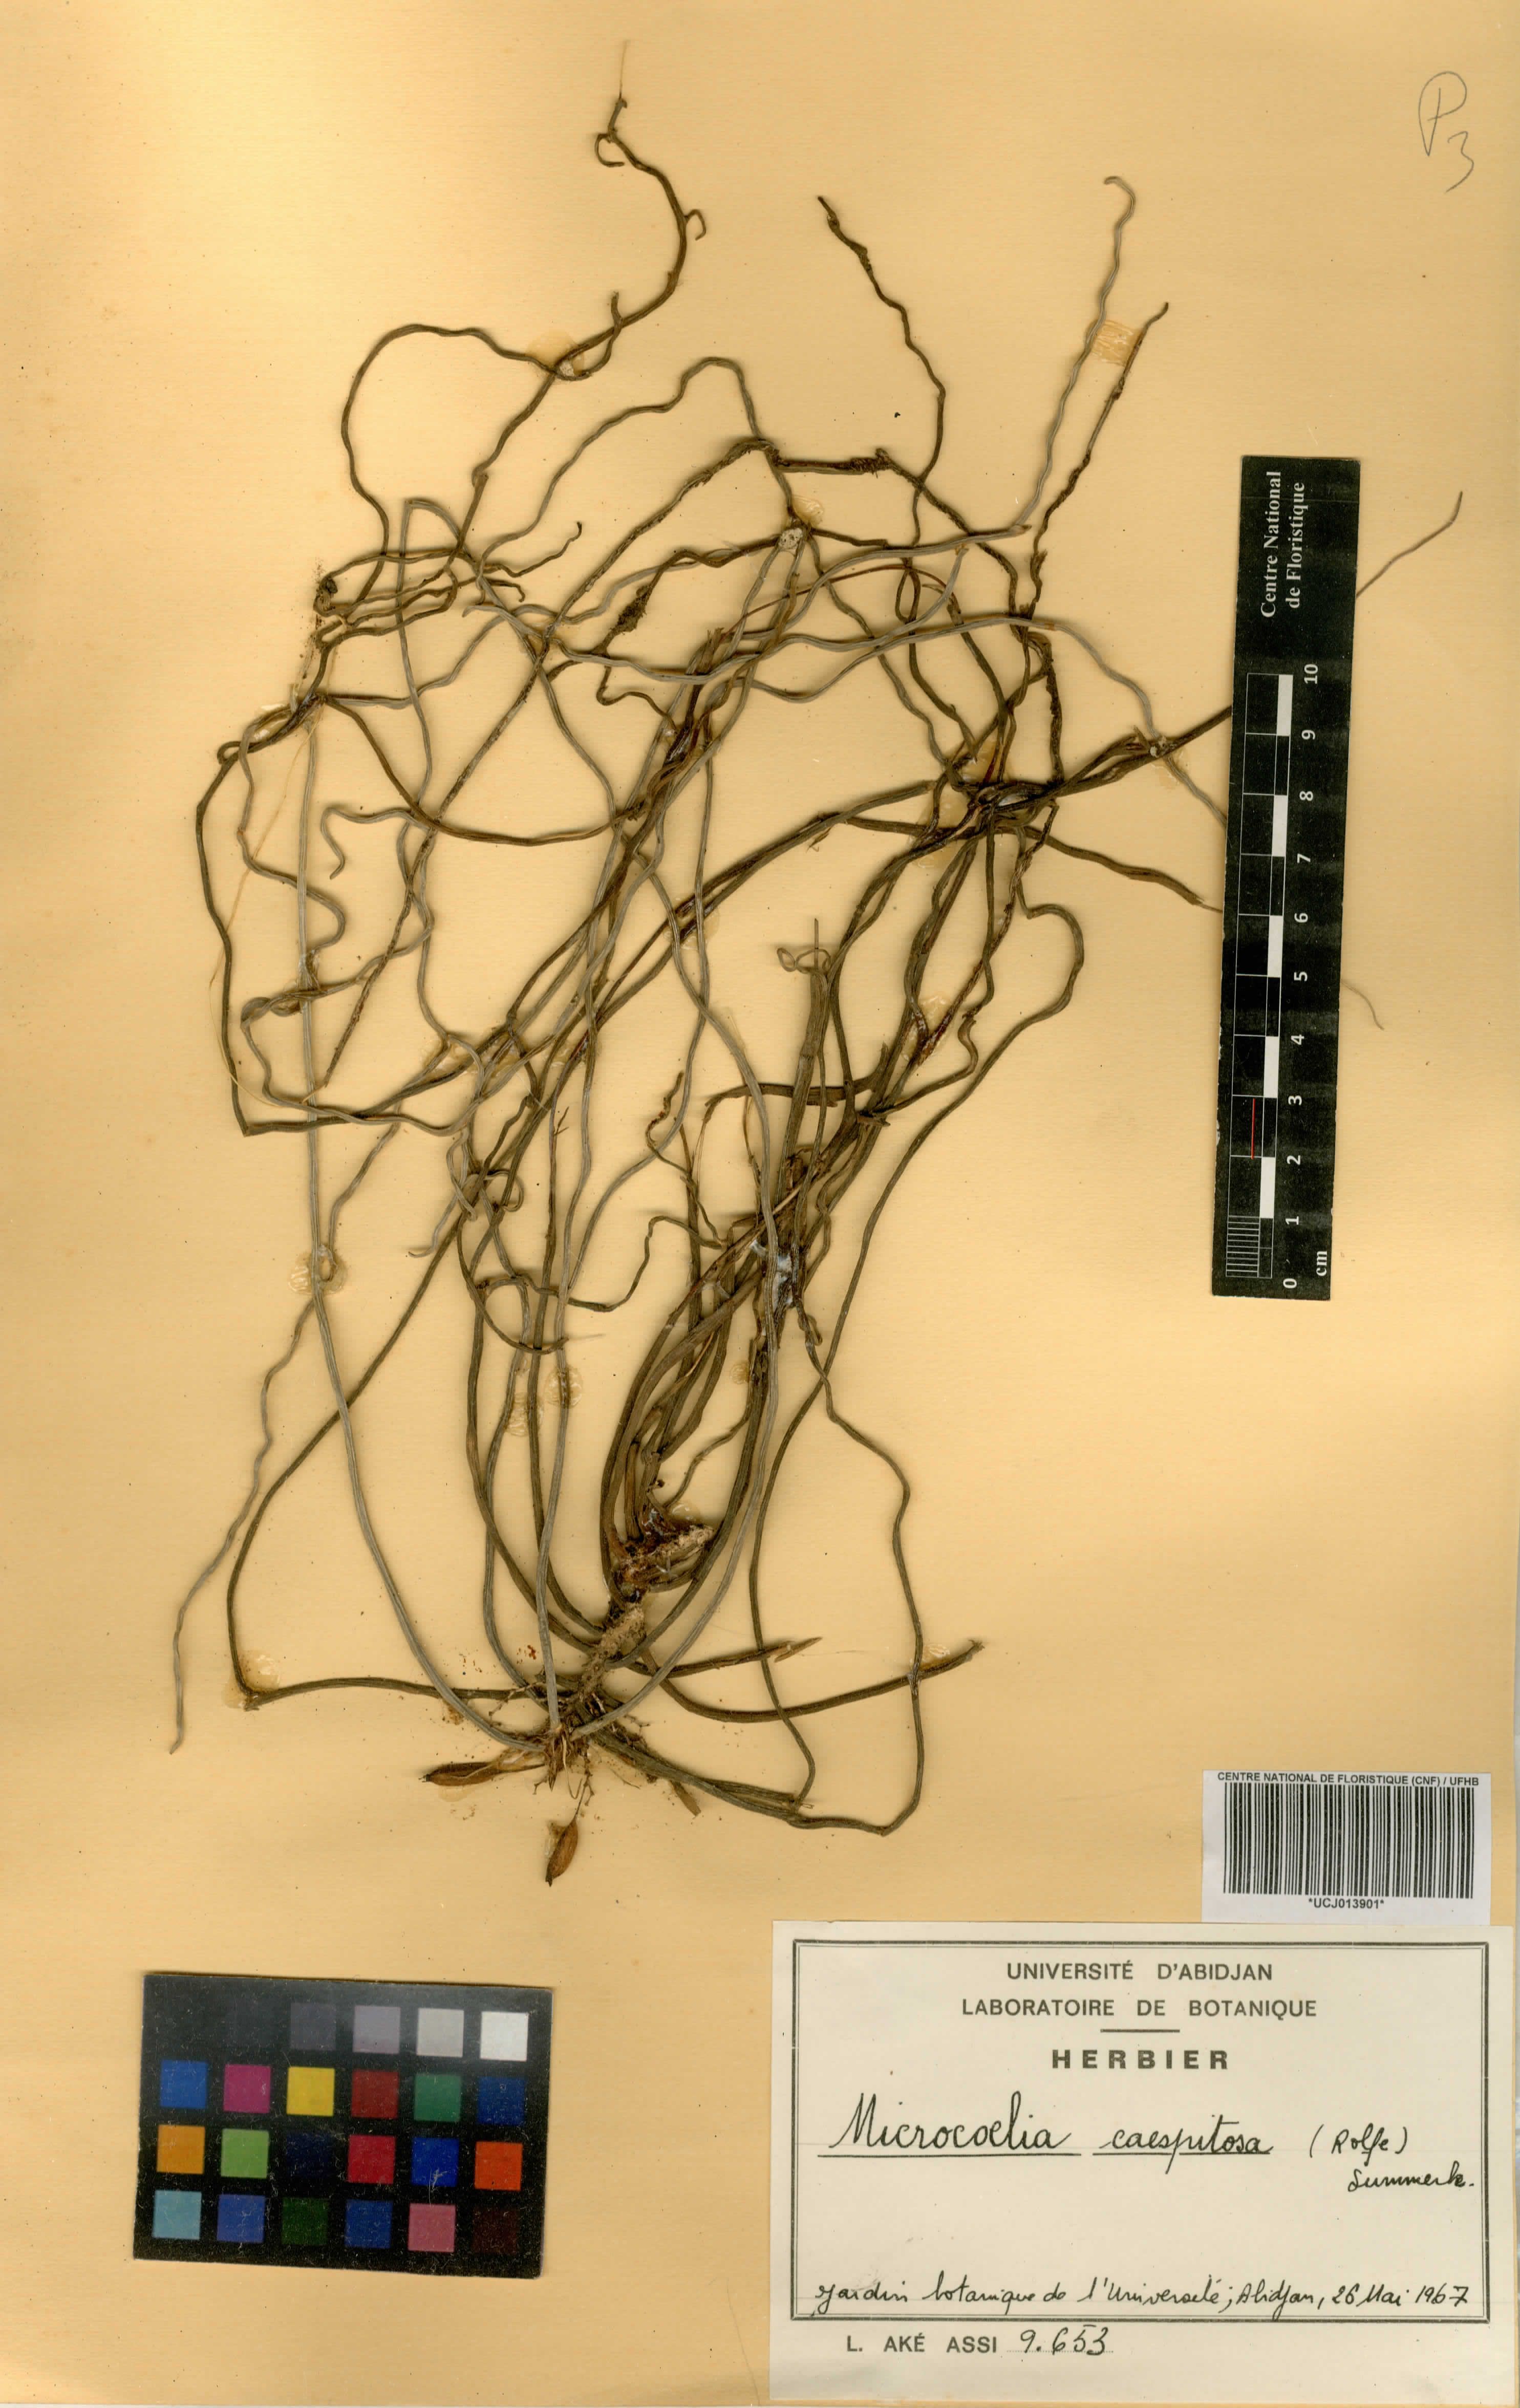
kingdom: Plantae
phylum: Tracheophyta
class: Liliopsida
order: Asparagales
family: Orchidaceae
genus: Microcoelia
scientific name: Microcoelia caespitosa
